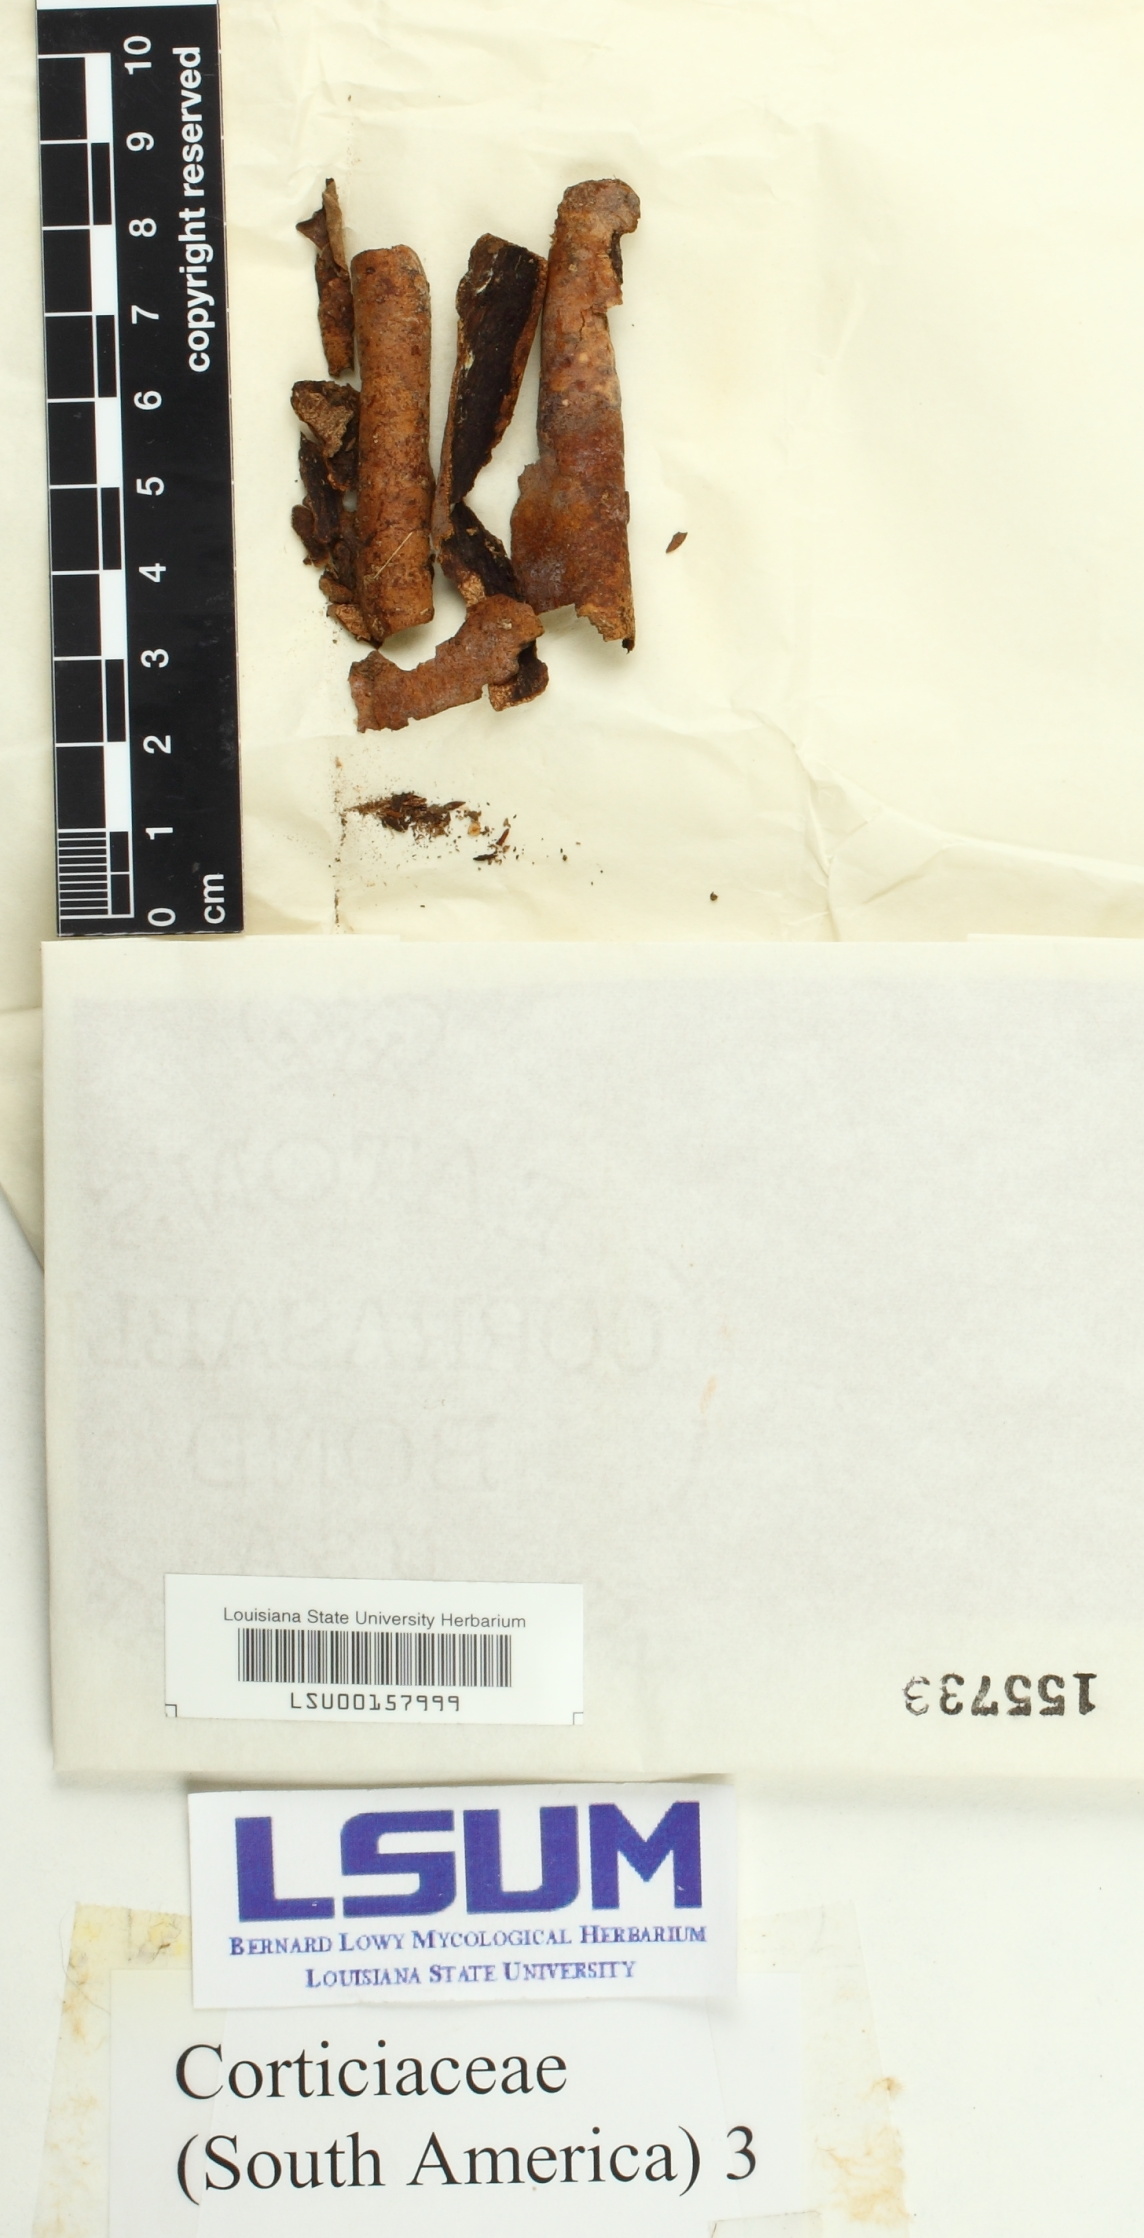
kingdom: Fungi
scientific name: Fungi
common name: Fungi
